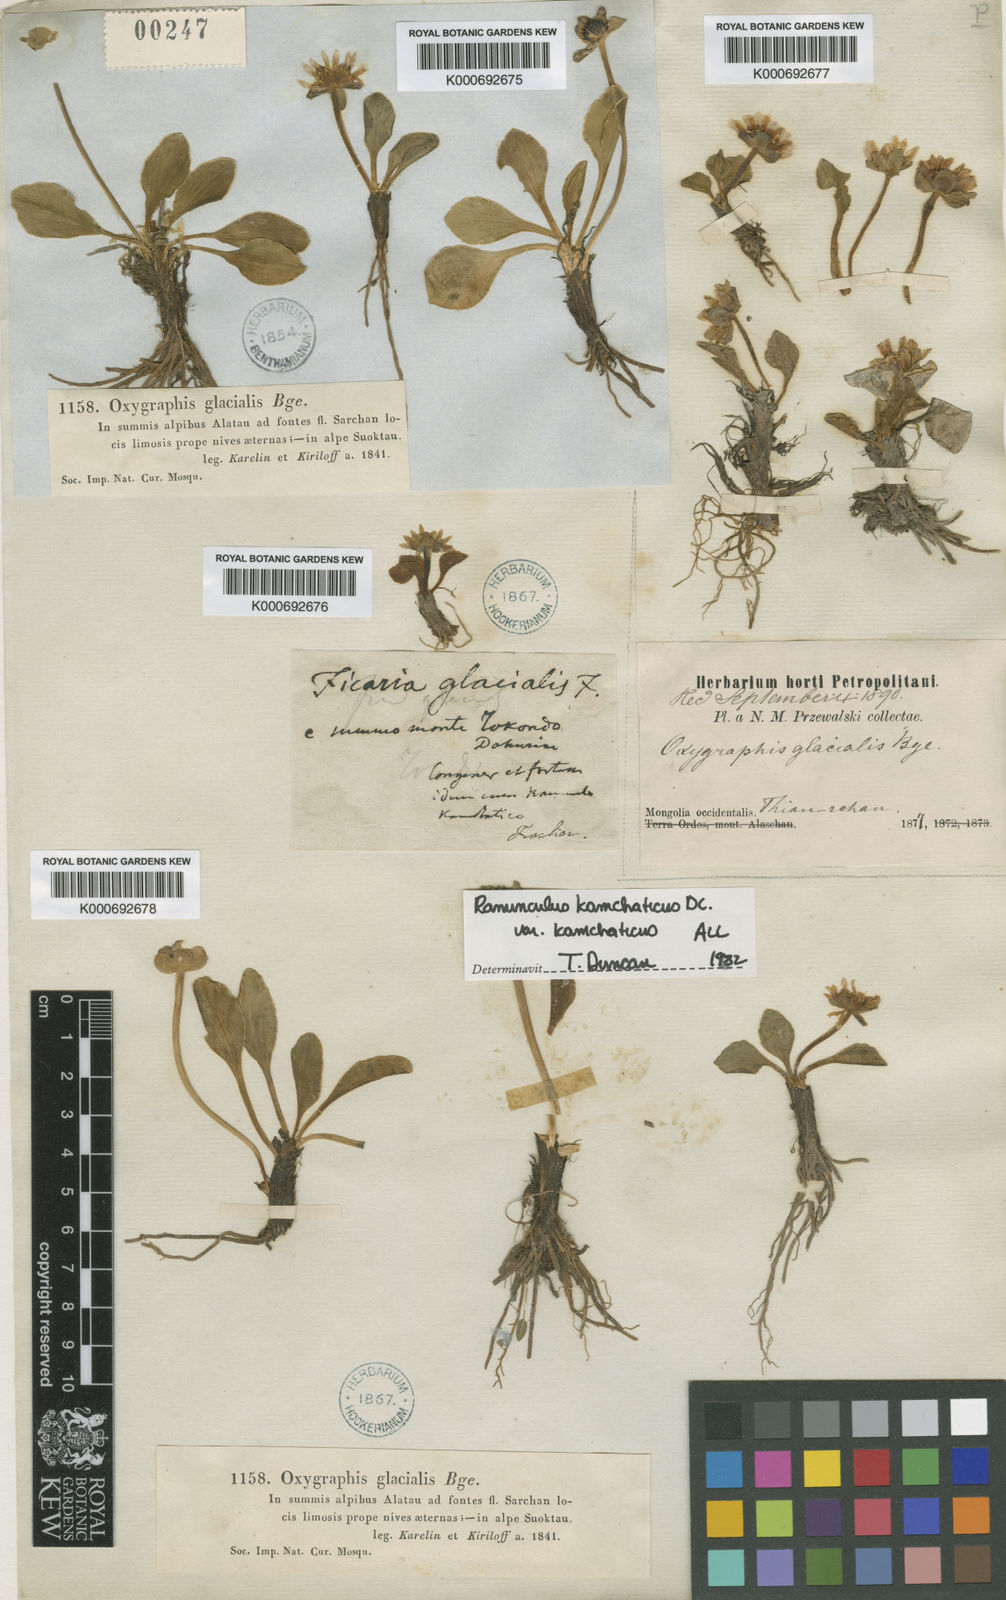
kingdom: Plantae
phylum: Tracheophyta
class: Magnoliopsida
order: Ranunculales
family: Ranunculaceae
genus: Oxygraphis
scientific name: Oxygraphis kamchatica
